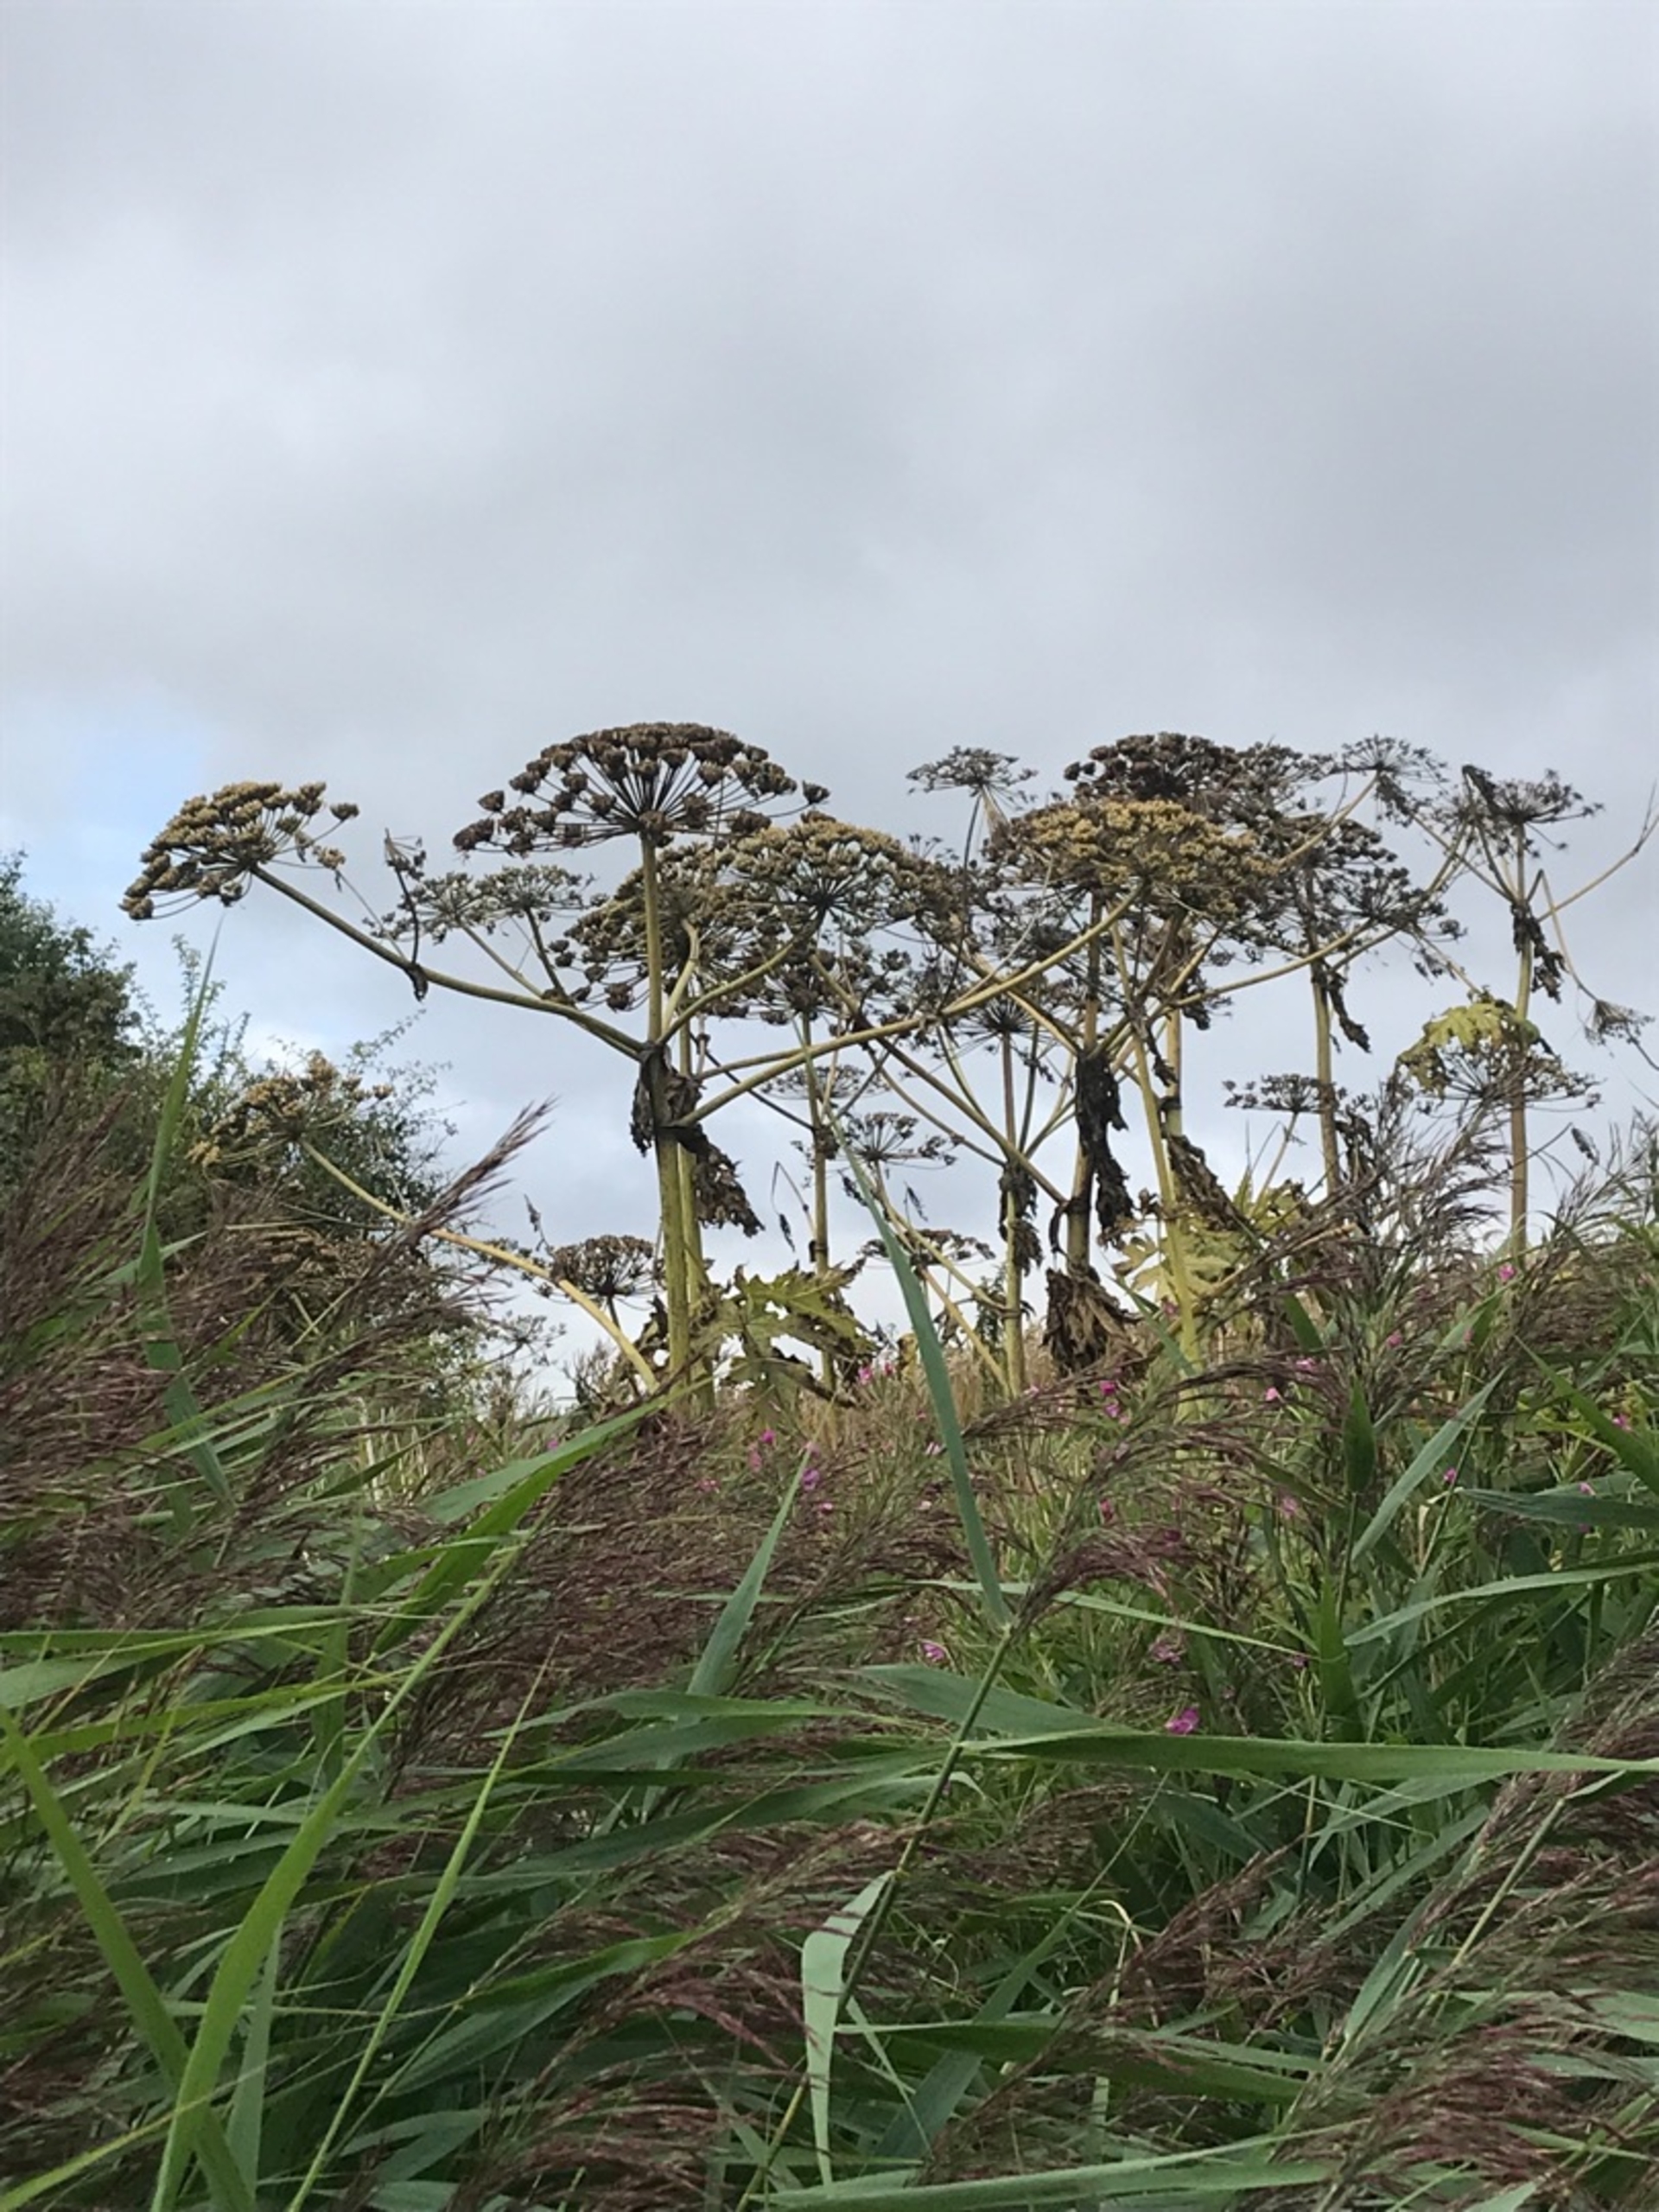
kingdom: Plantae
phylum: Tracheophyta
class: Magnoliopsida
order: Apiales
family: Apiaceae
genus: Heracleum
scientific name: Heracleum mantegazzianum
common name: Kæmpe-bjørneklo
